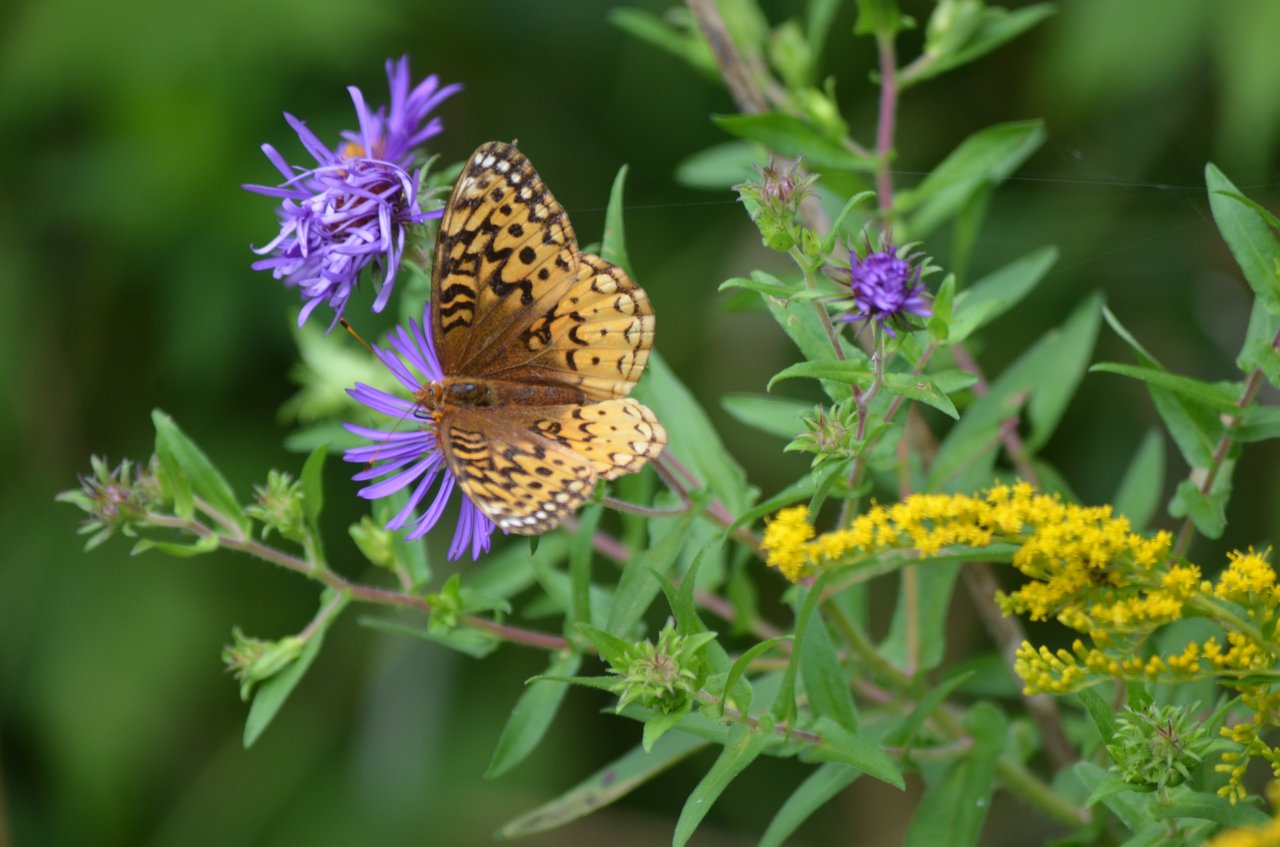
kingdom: Animalia
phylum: Arthropoda
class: Insecta
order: Lepidoptera
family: Nymphalidae
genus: Speyeria
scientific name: Speyeria cybele
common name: Great Spangled Fritillary
